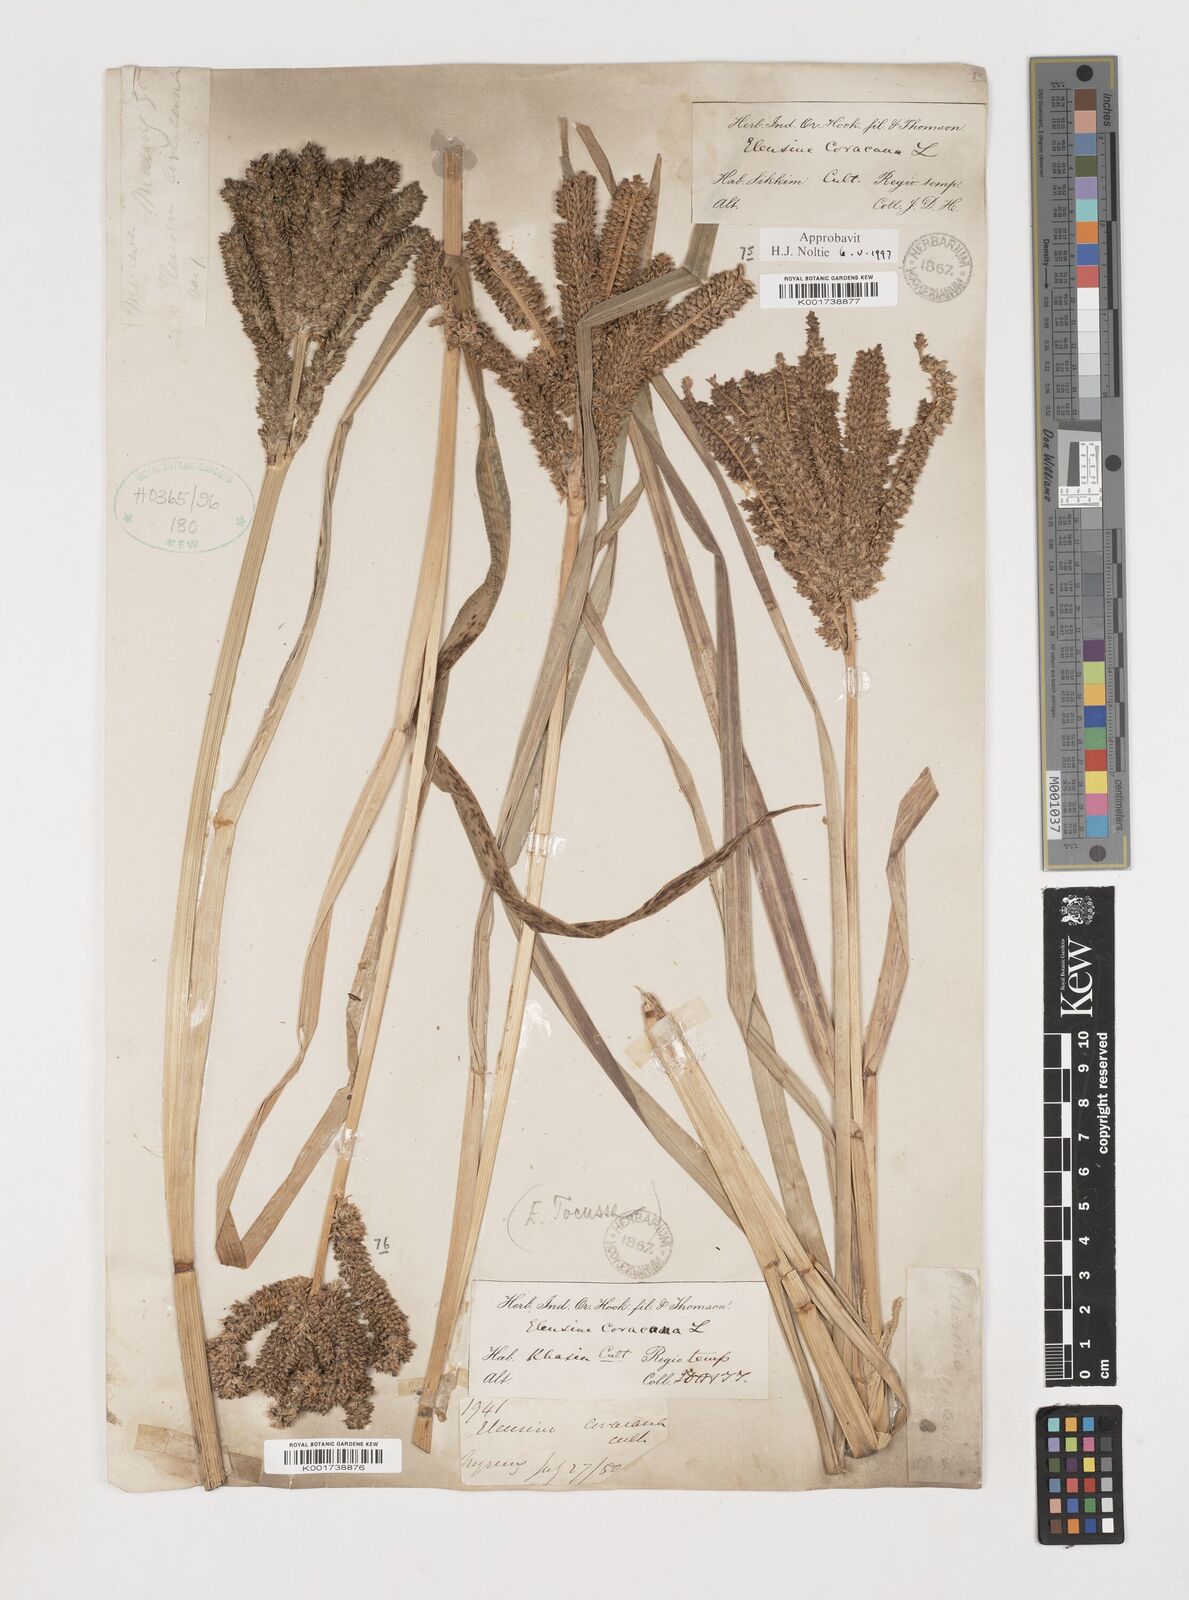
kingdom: Plantae
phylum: Tracheophyta
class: Liliopsida
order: Poales
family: Poaceae
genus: Eleusine
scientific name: Eleusine coracana
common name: Finger millet
